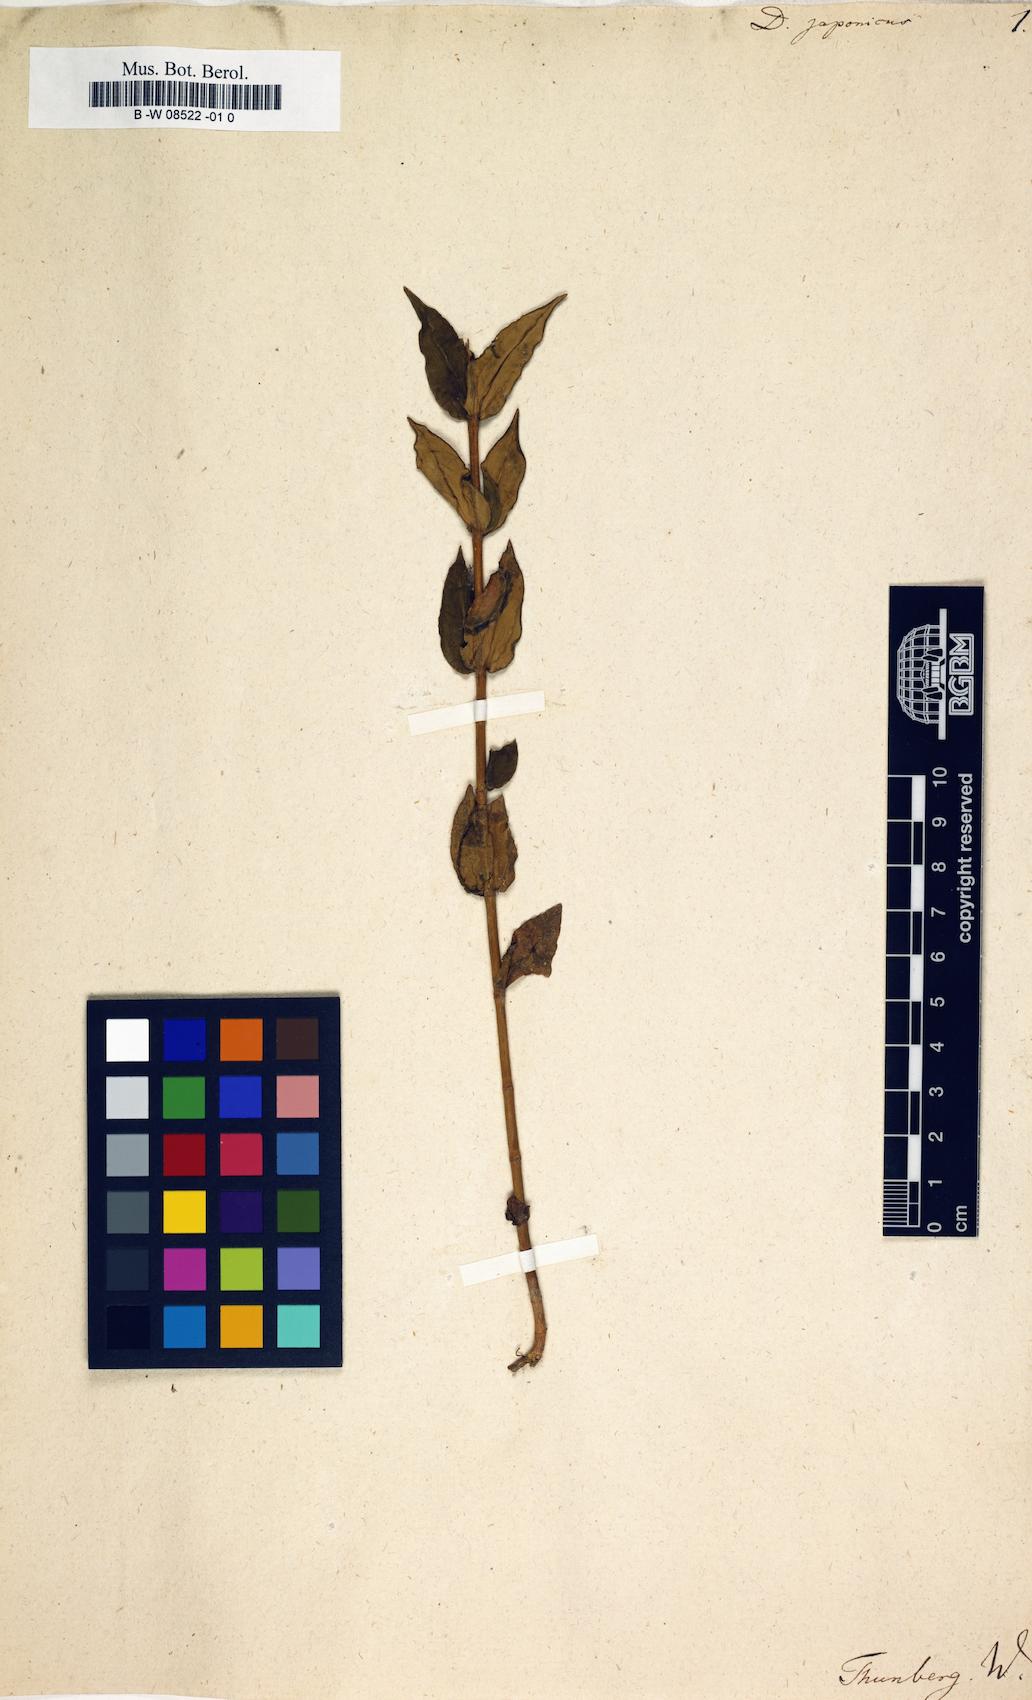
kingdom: Plantae
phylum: Tracheophyta
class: Magnoliopsida
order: Caryophyllales
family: Caryophyllaceae
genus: Dianthus
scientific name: Dianthus japonicus
